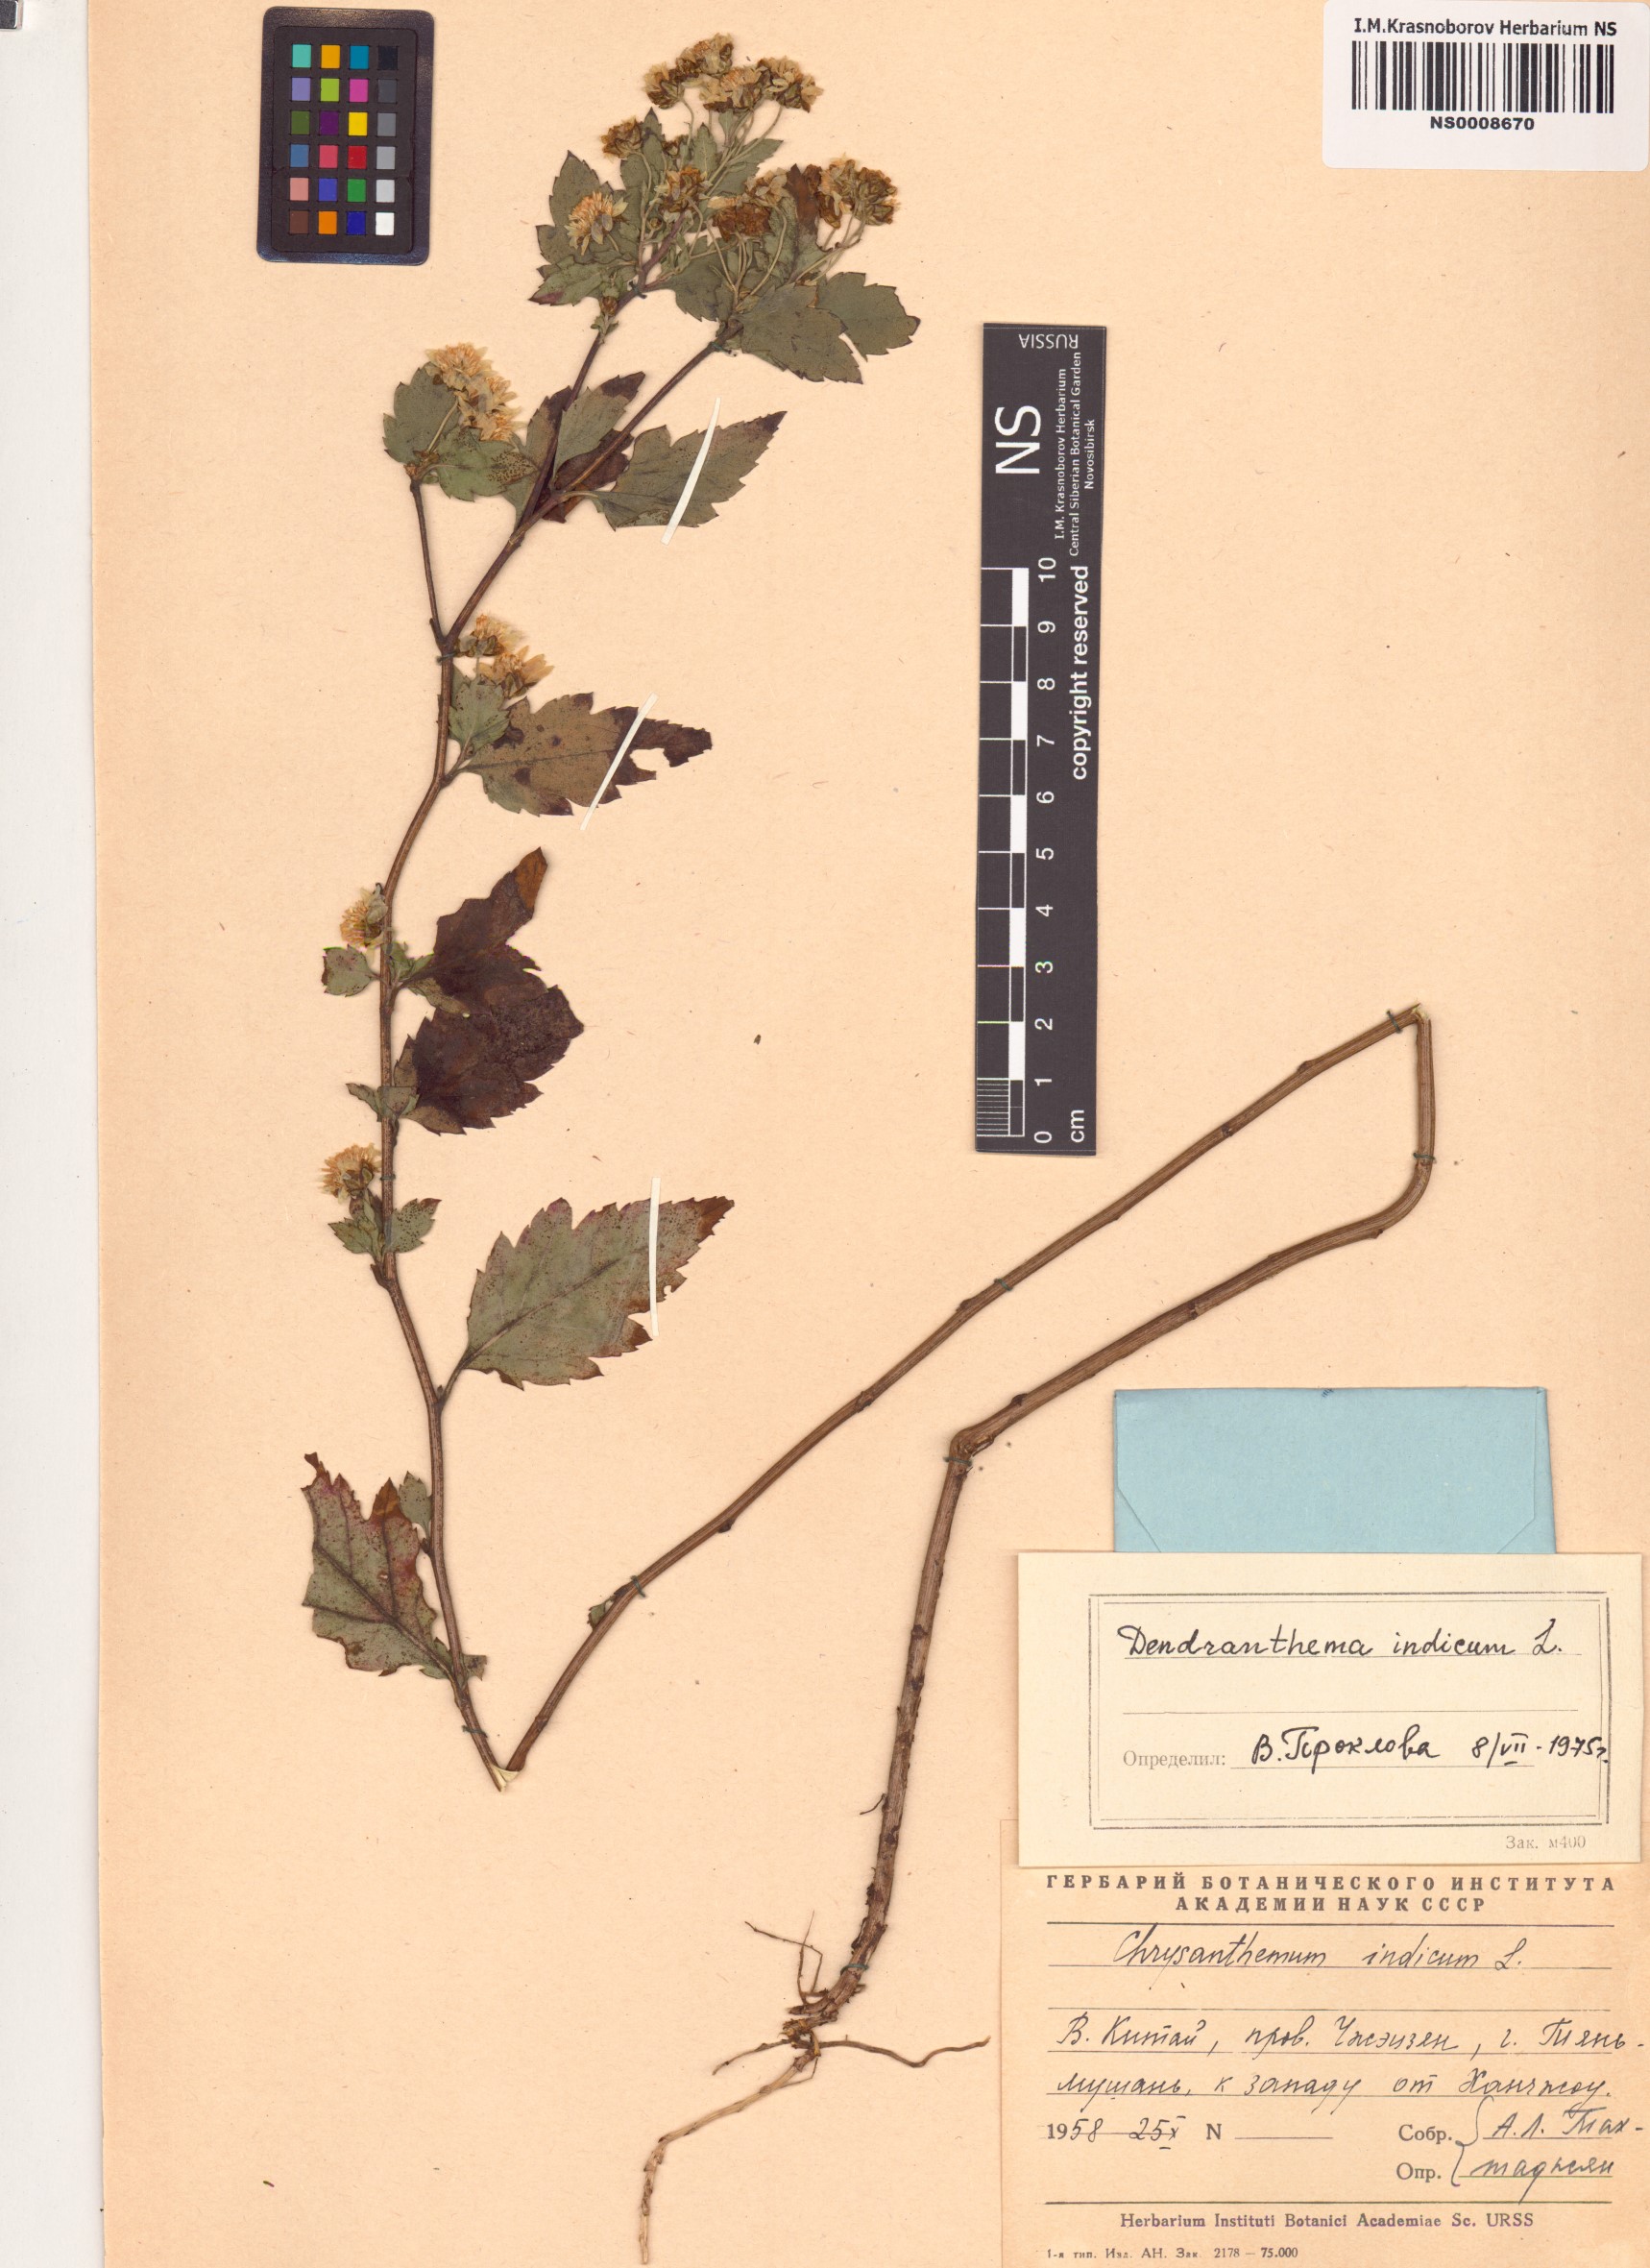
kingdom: Plantae
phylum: Tracheophyta
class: Magnoliopsida
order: Asterales
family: Asteraceae
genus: Chrysanthemum
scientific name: Chrysanthemum indicum
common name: Indian chrysanthemum
